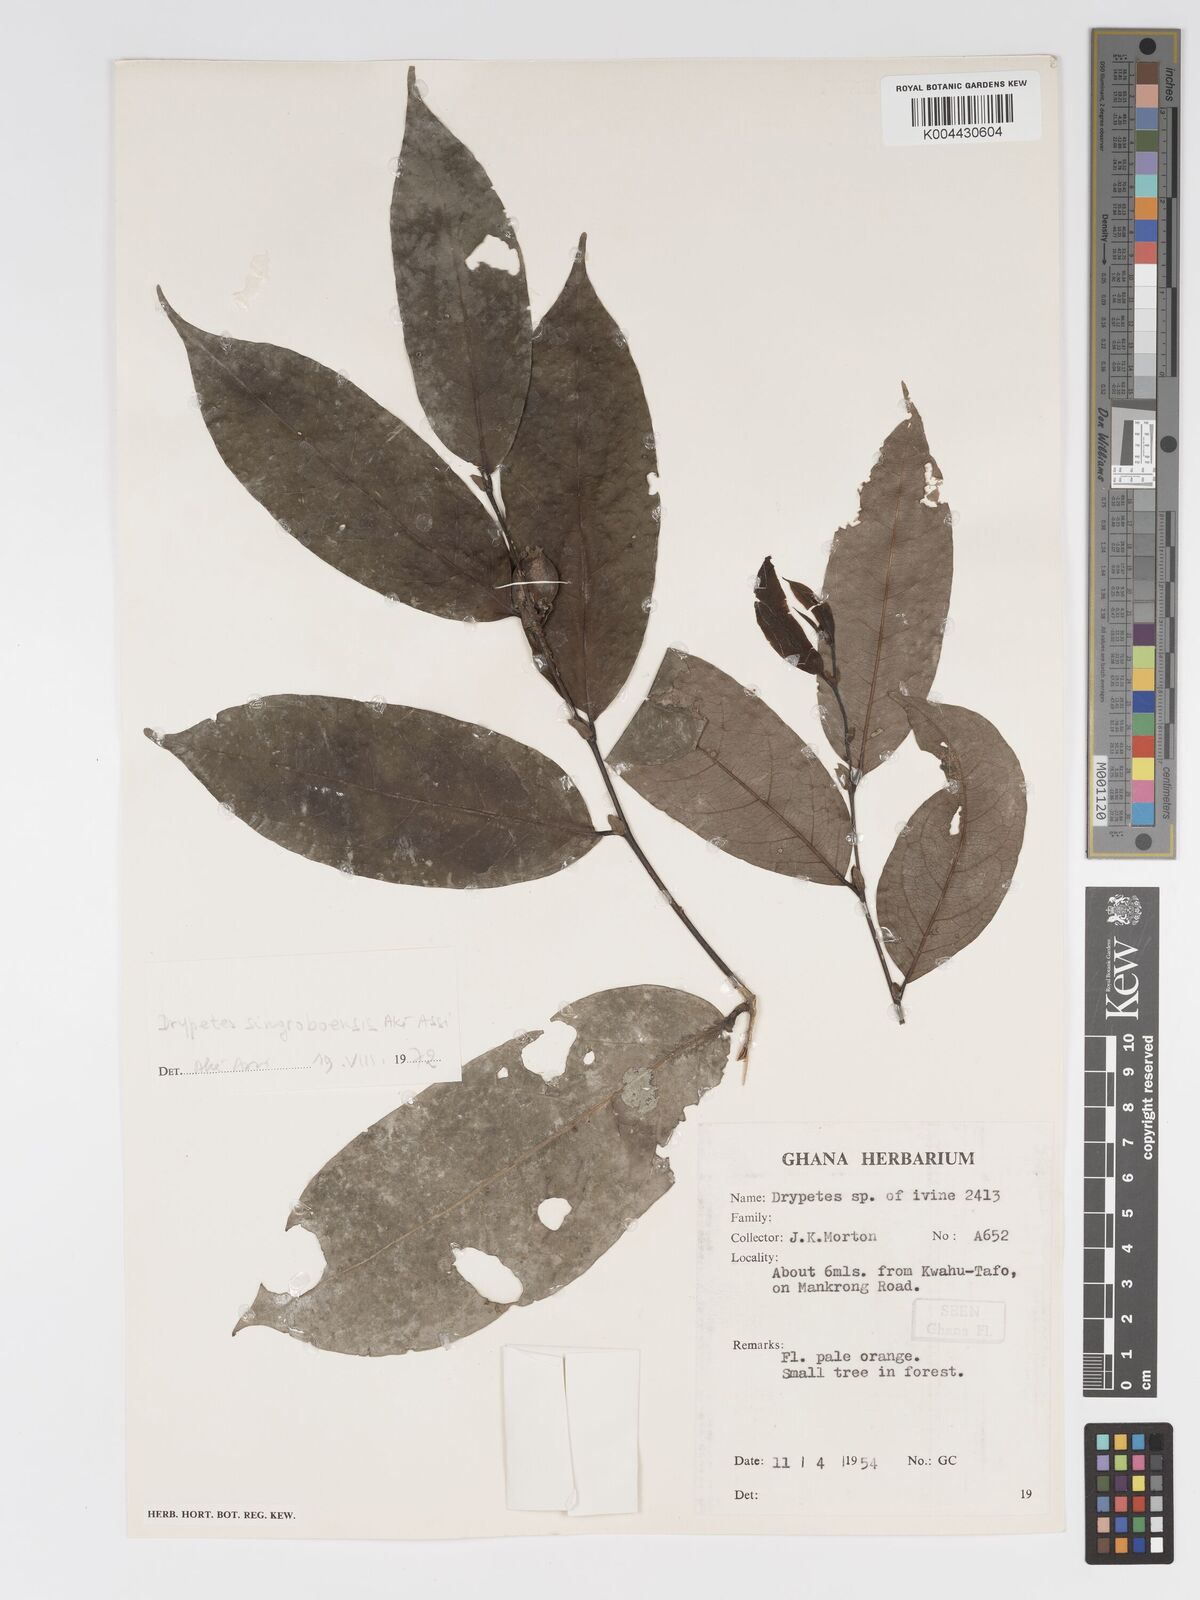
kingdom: Plantae
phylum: Tracheophyta
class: Magnoliopsida
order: Malpighiales
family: Putranjivaceae
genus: Drypetes
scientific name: Drypetes singroboensis
